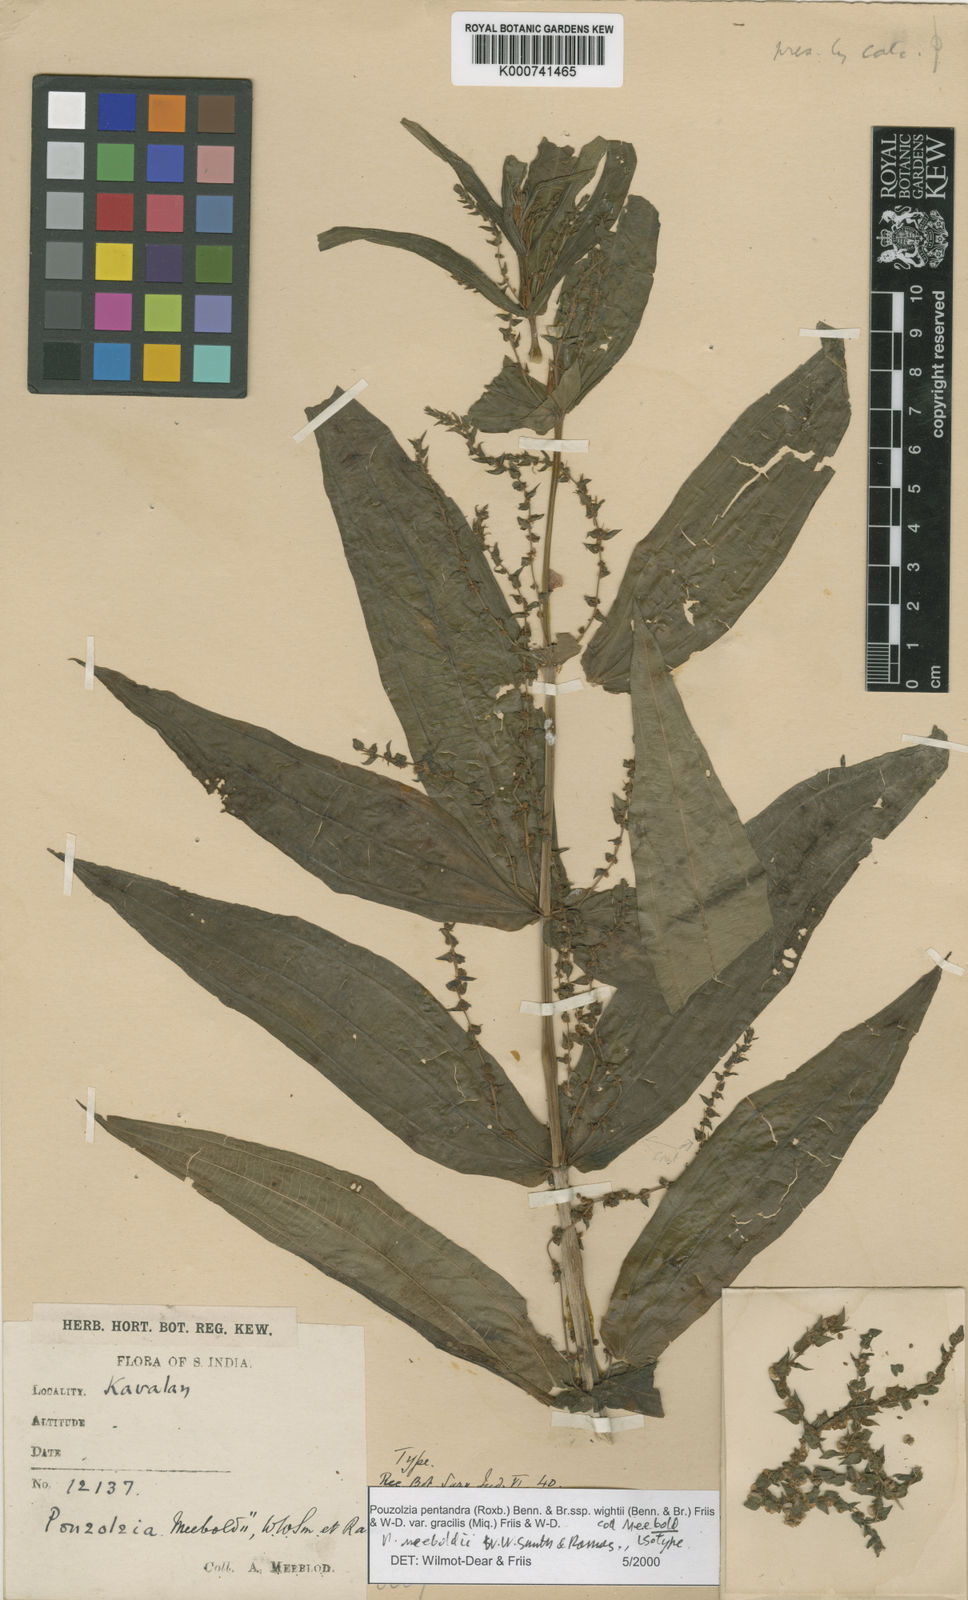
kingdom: Plantae
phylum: Tracheophyta
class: Magnoliopsida
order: Rosales
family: Urticaceae
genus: Gonostegia
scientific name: Gonostegia pentandra
